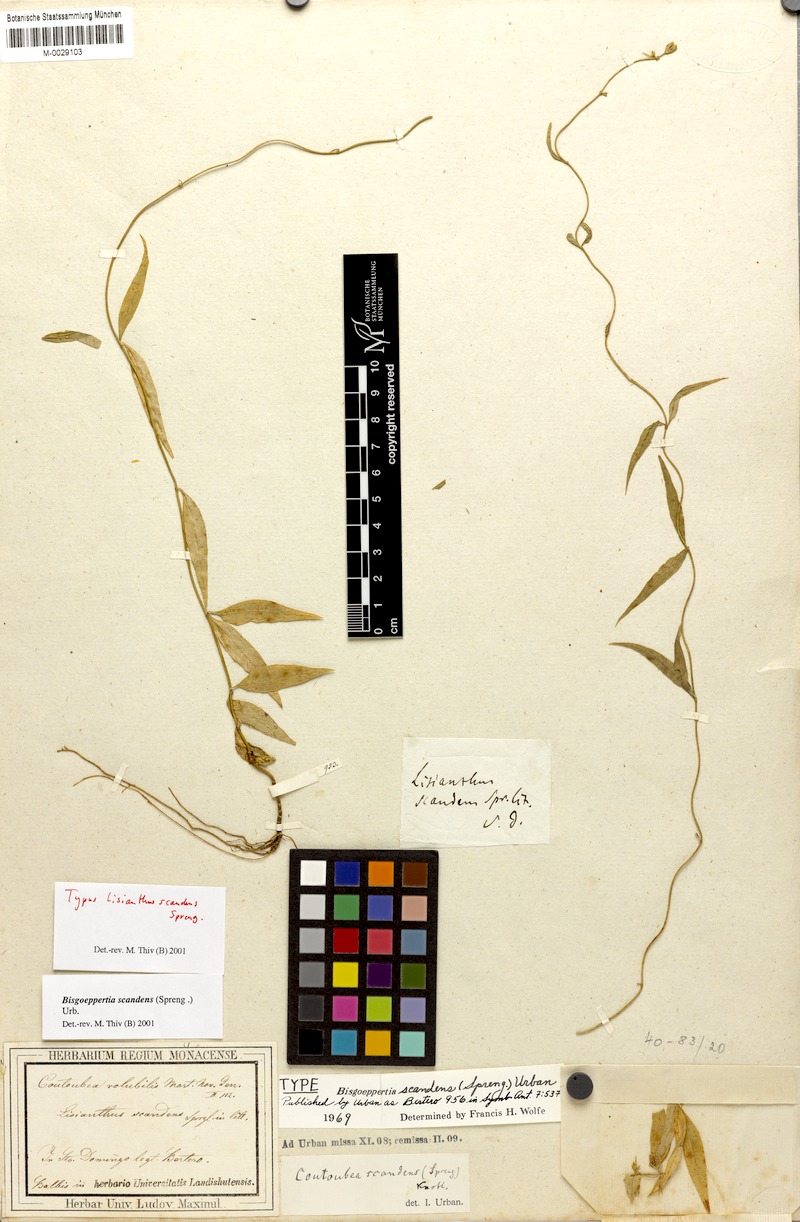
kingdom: Plantae
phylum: Tracheophyta
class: Magnoliopsida
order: Gentianales
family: Gentianaceae
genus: Bisgoeppertia
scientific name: Bisgoeppertia scandens
